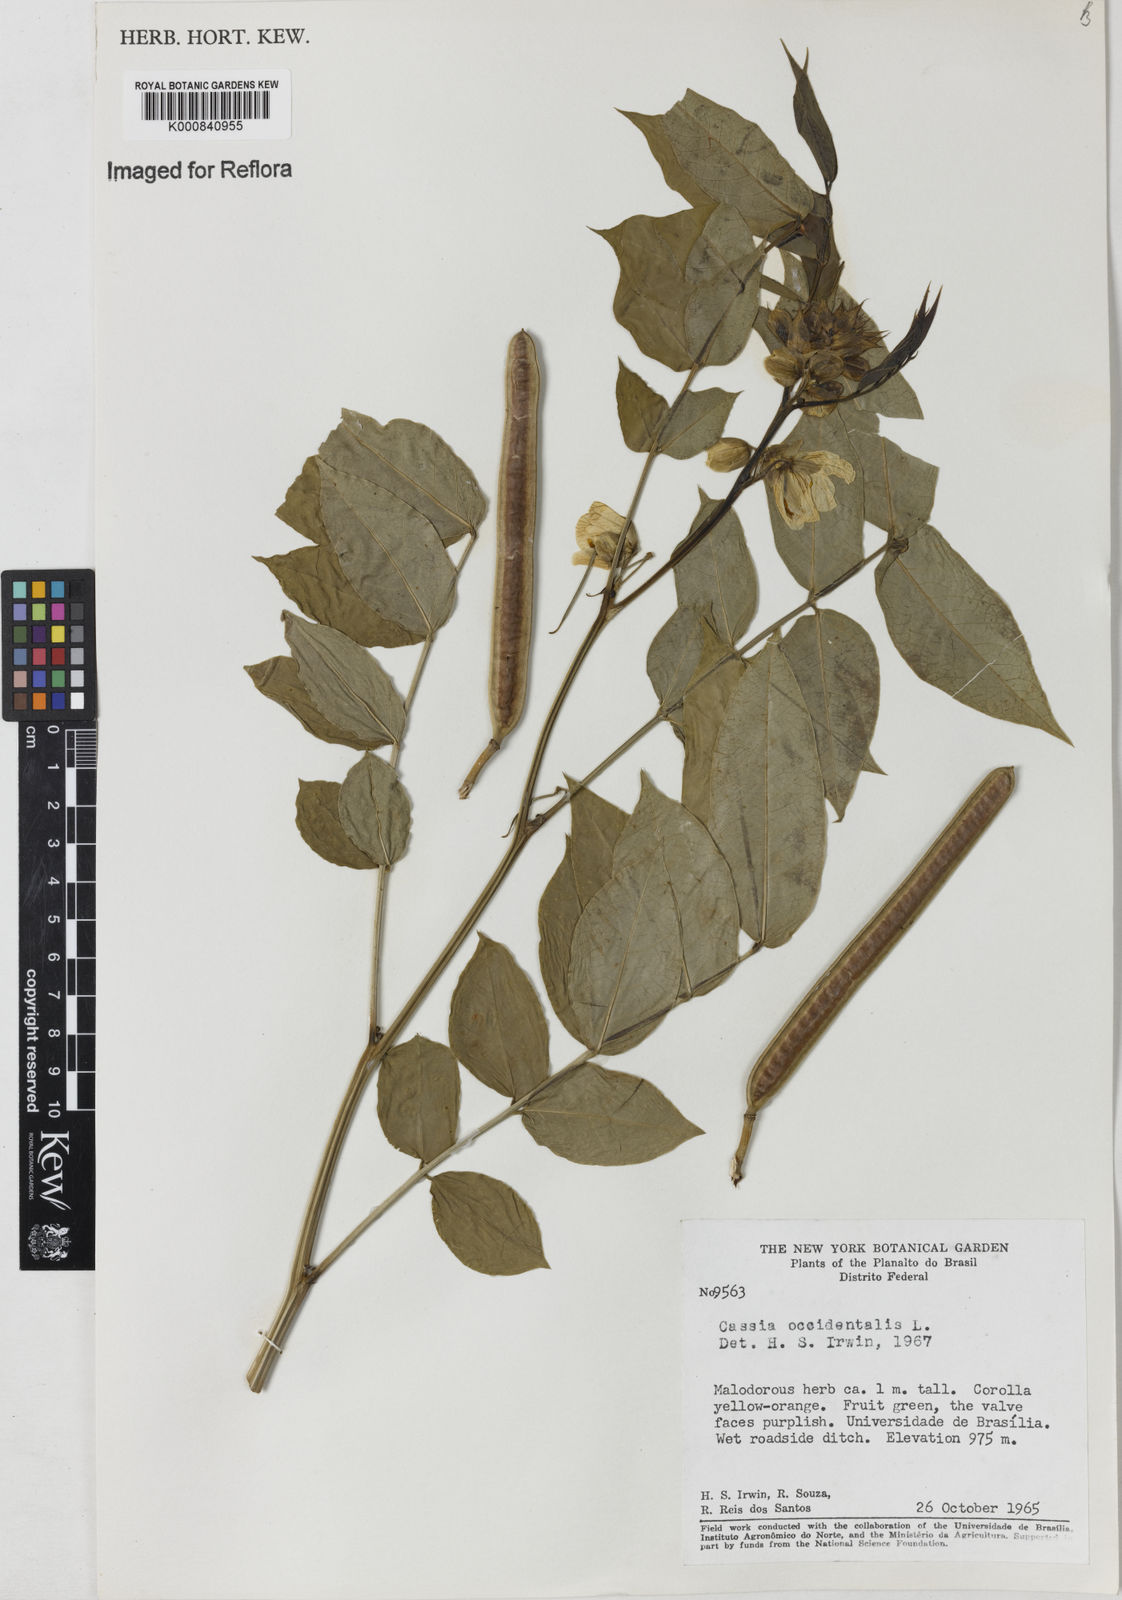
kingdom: Plantae
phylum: Tracheophyta
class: Magnoliopsida
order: Fabales
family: Fabaceae
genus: Senna
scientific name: Senna occidentalis
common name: Septicweed
